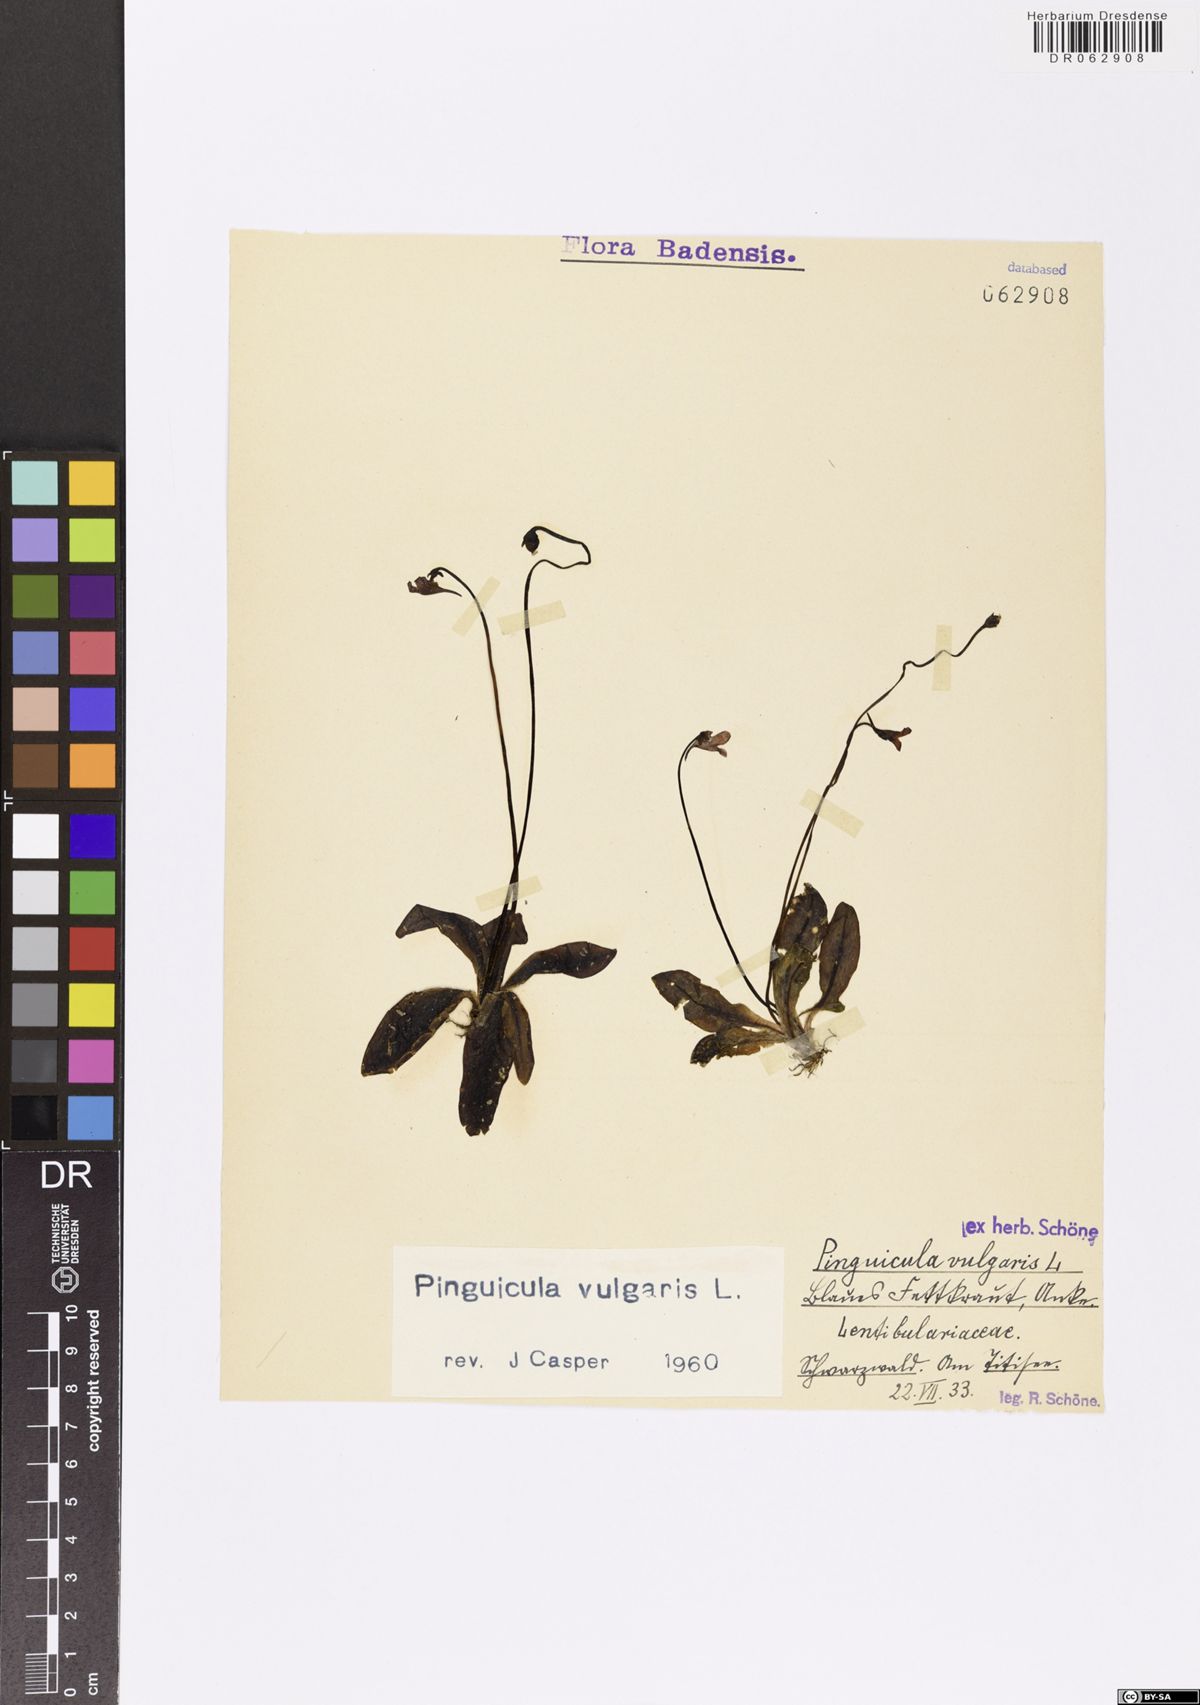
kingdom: Plantae
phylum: Tracheophyta
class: Magnoliopsida
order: Lamiales
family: Lentibulariaceae
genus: Pinguicula
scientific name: Pinguicula vulgaris
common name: Common butterwort
